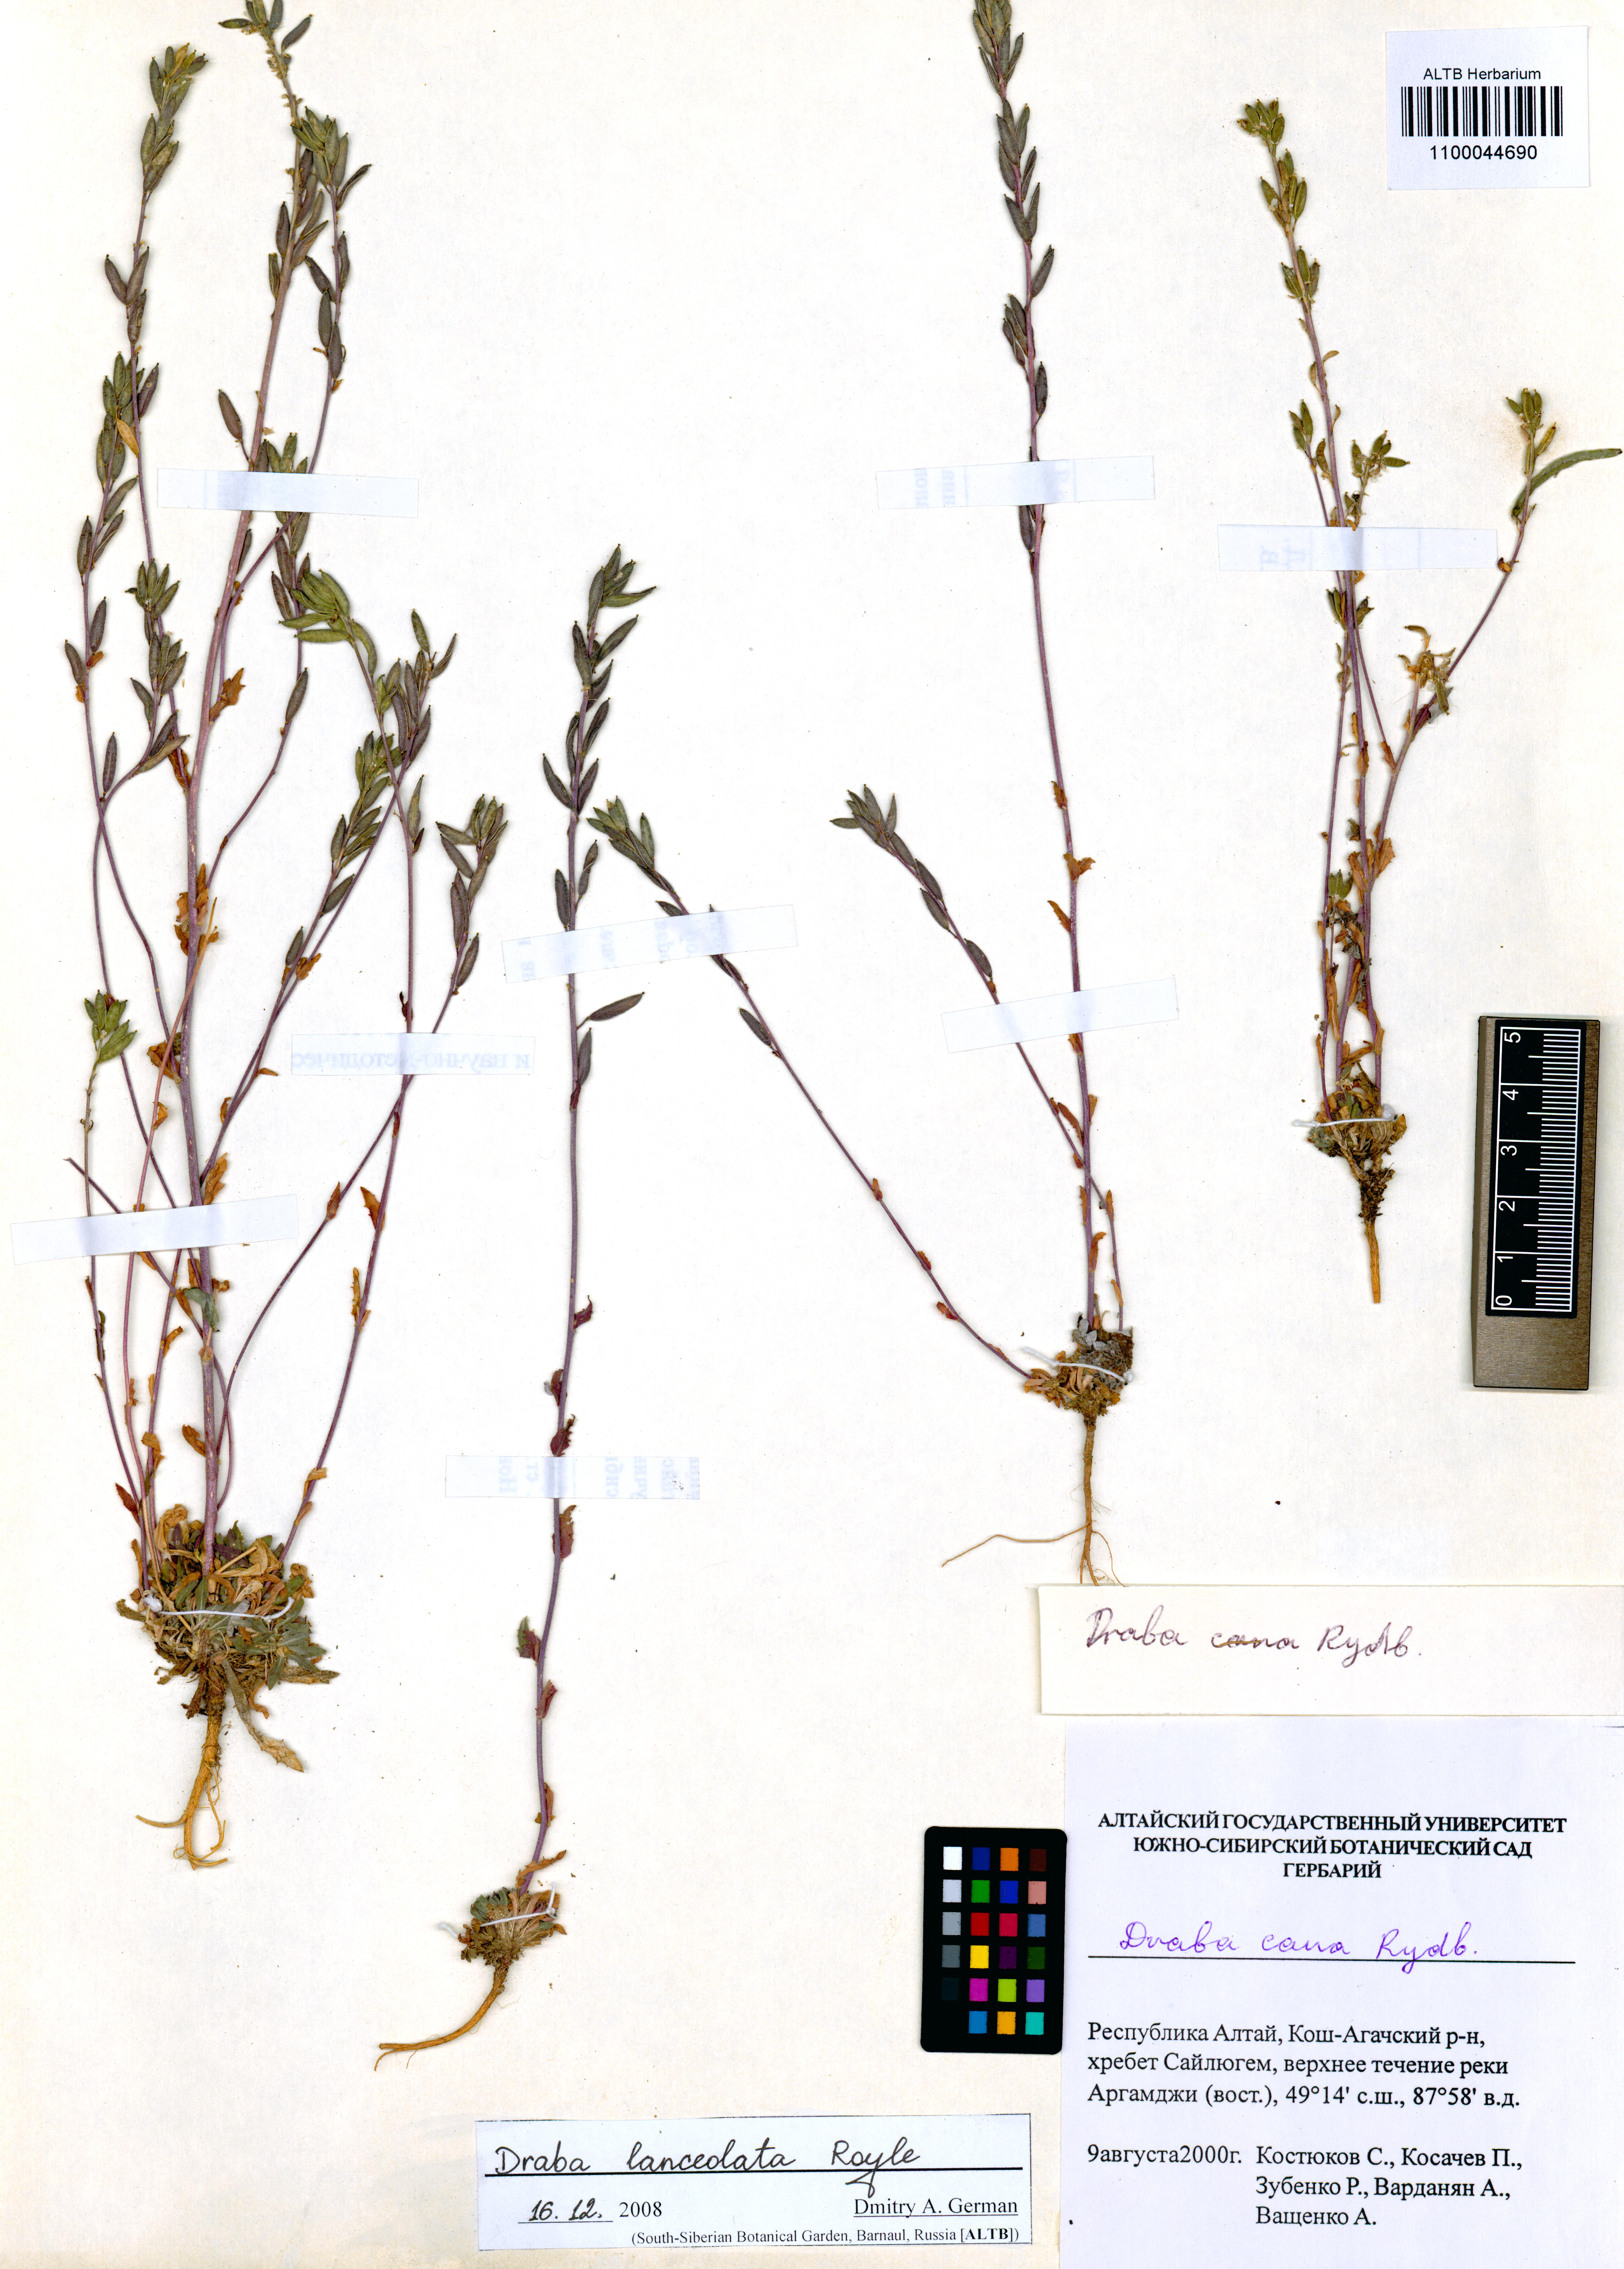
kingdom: Plantae
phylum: Tracheophyta
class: Magnoliopsida
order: Brassicales
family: Brassicaceae
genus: Draba
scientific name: Draba lanceolata
